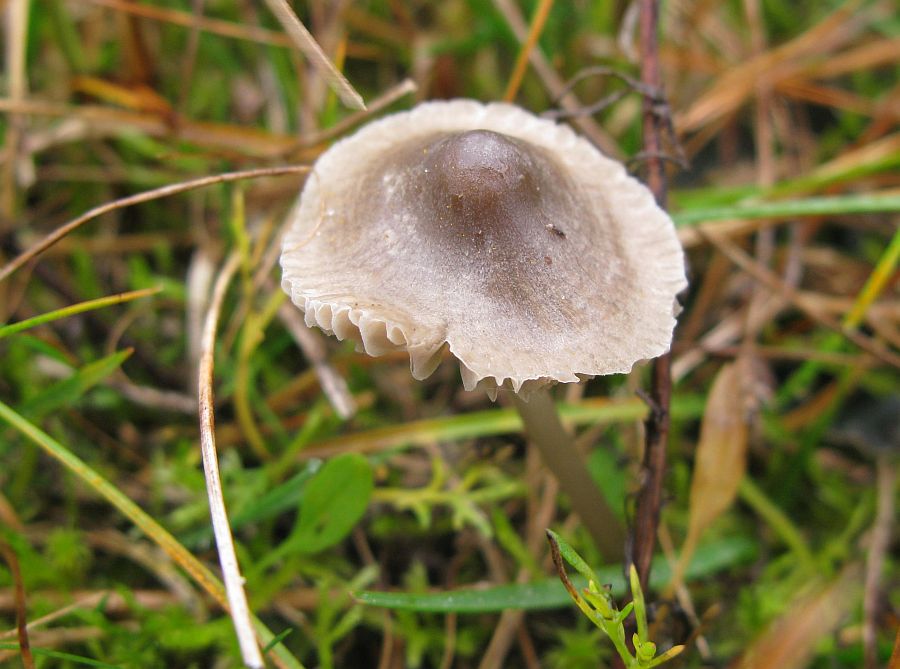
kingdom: Fungi
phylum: Basidiomycota
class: Agaricomycetes
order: Agaricales
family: Mycenaceae
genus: Mycena
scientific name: Mycena aetites
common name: plæne-huesvamp
